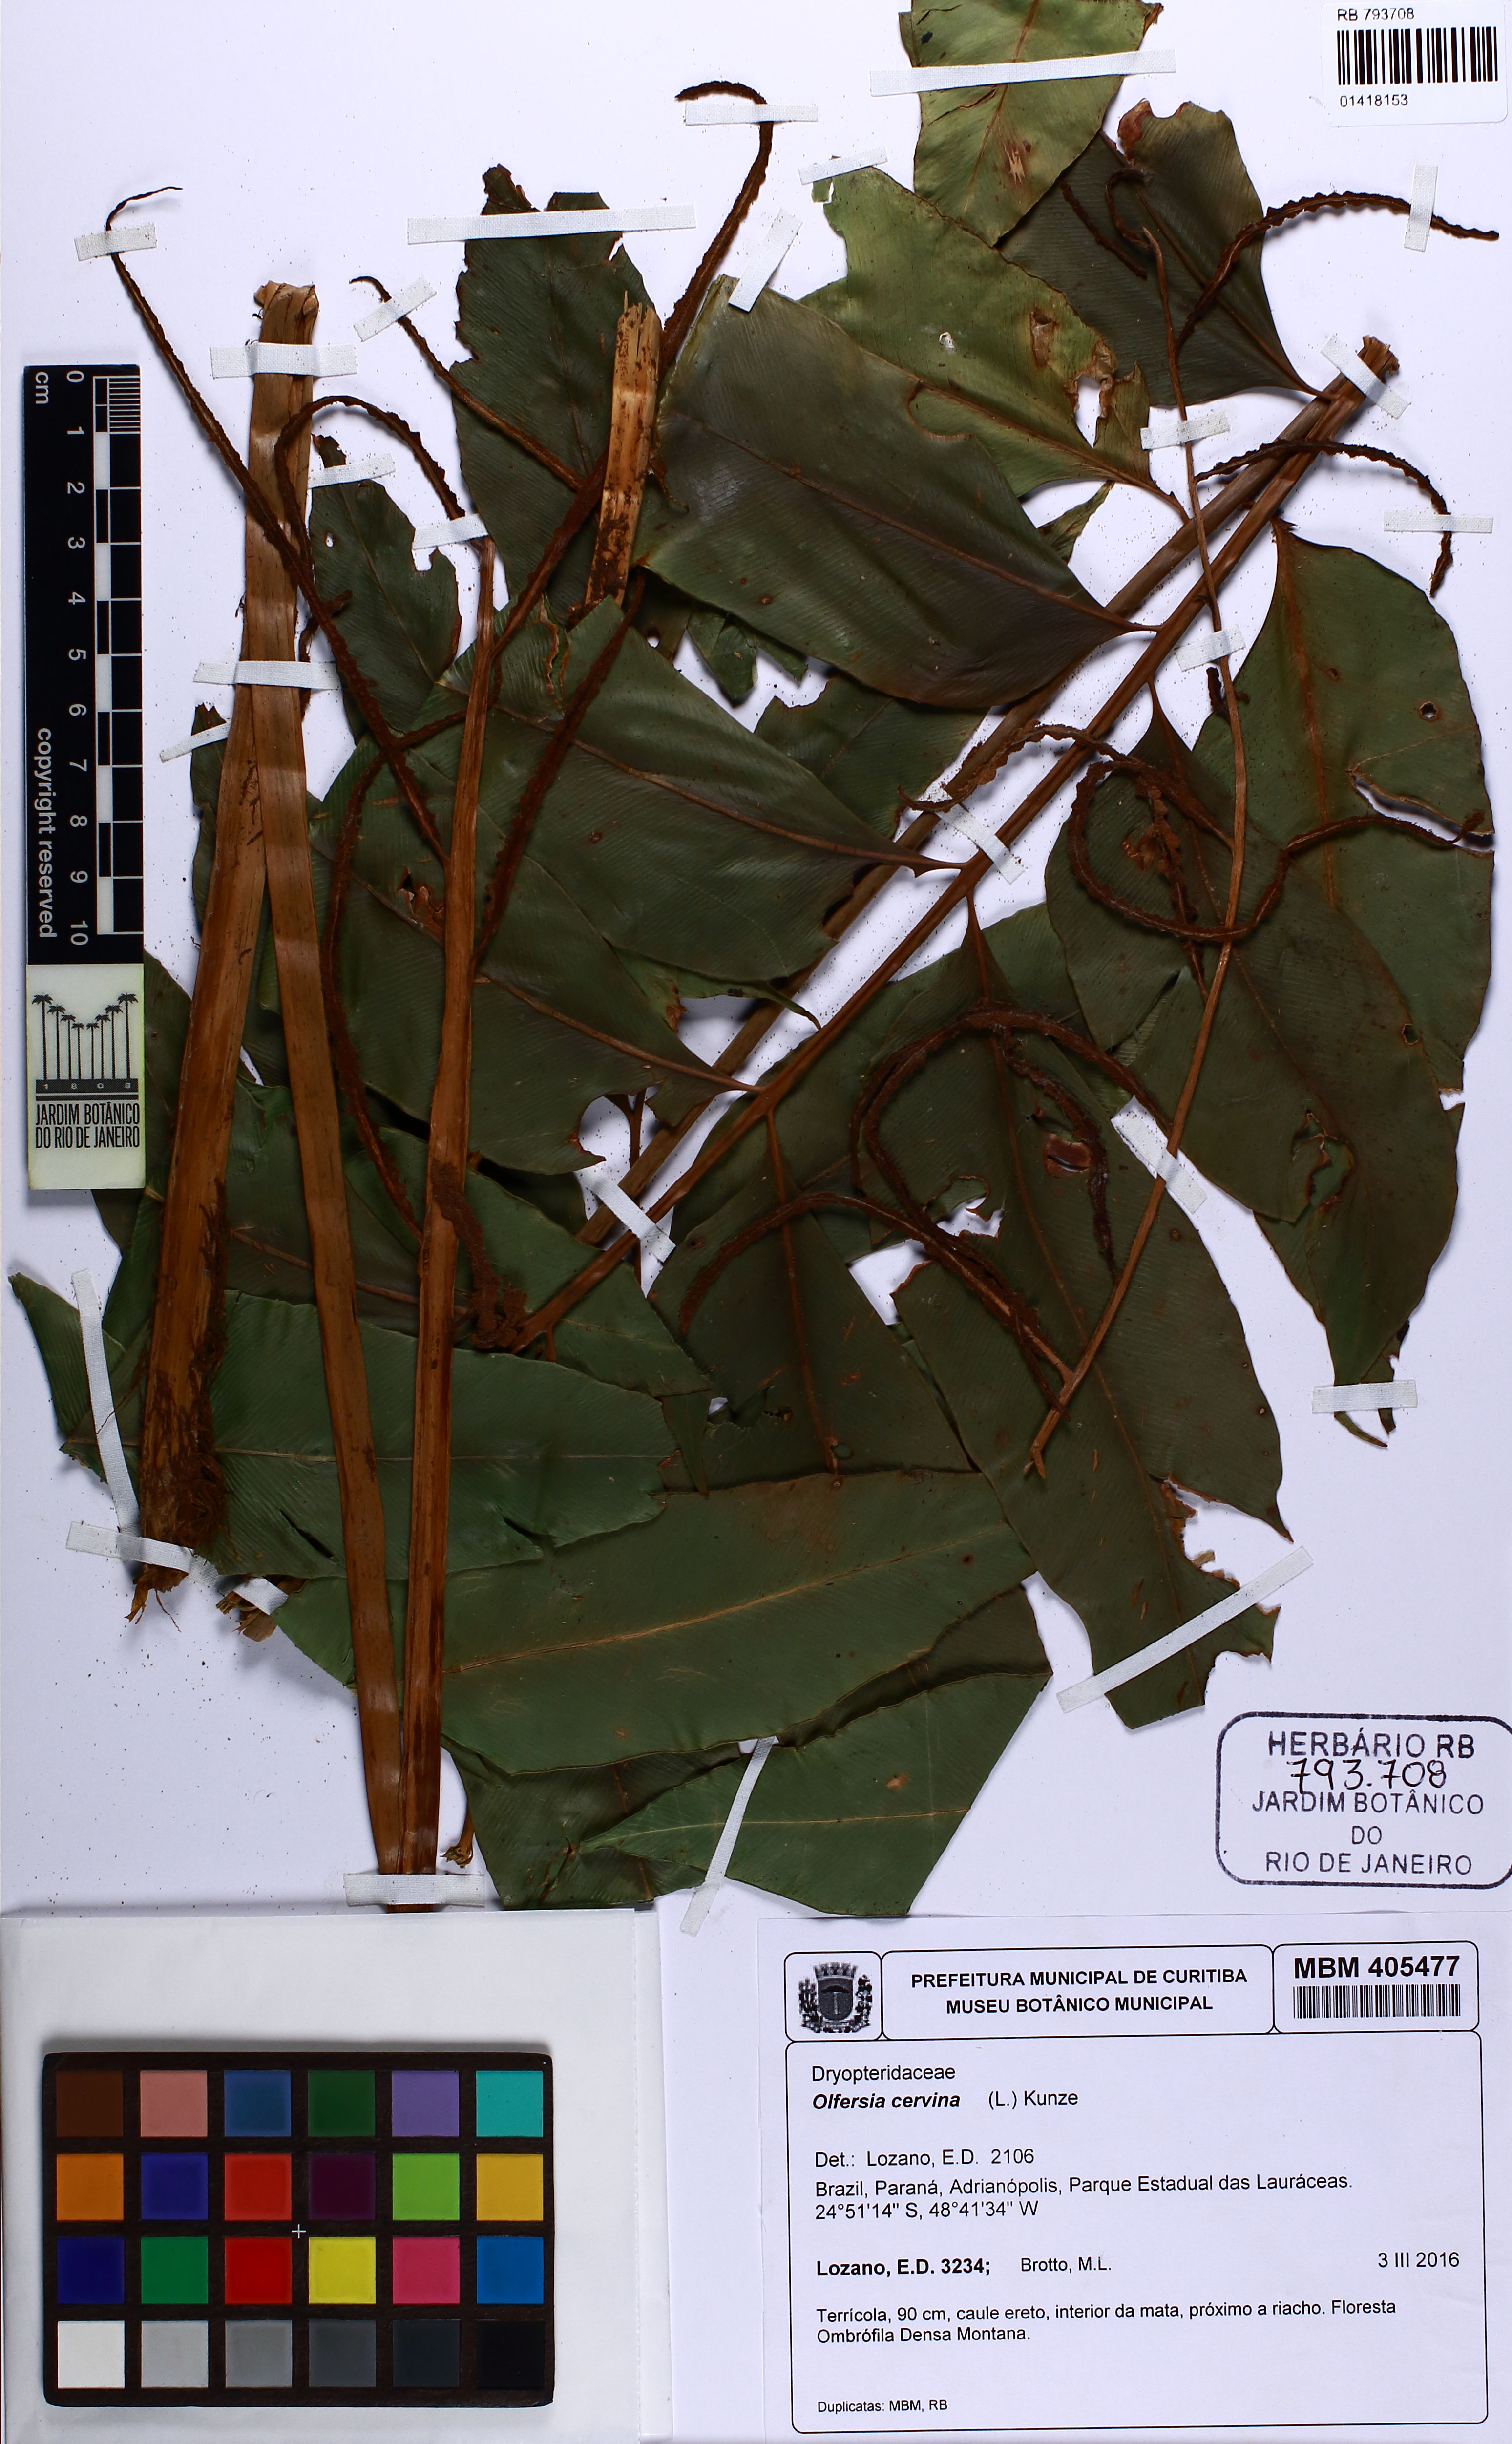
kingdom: Plantae
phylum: Tracheophyta
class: Polypodiopsida
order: Polypodiales
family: Dryopteridaceae
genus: Olfersia
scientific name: Olfersia cervina
